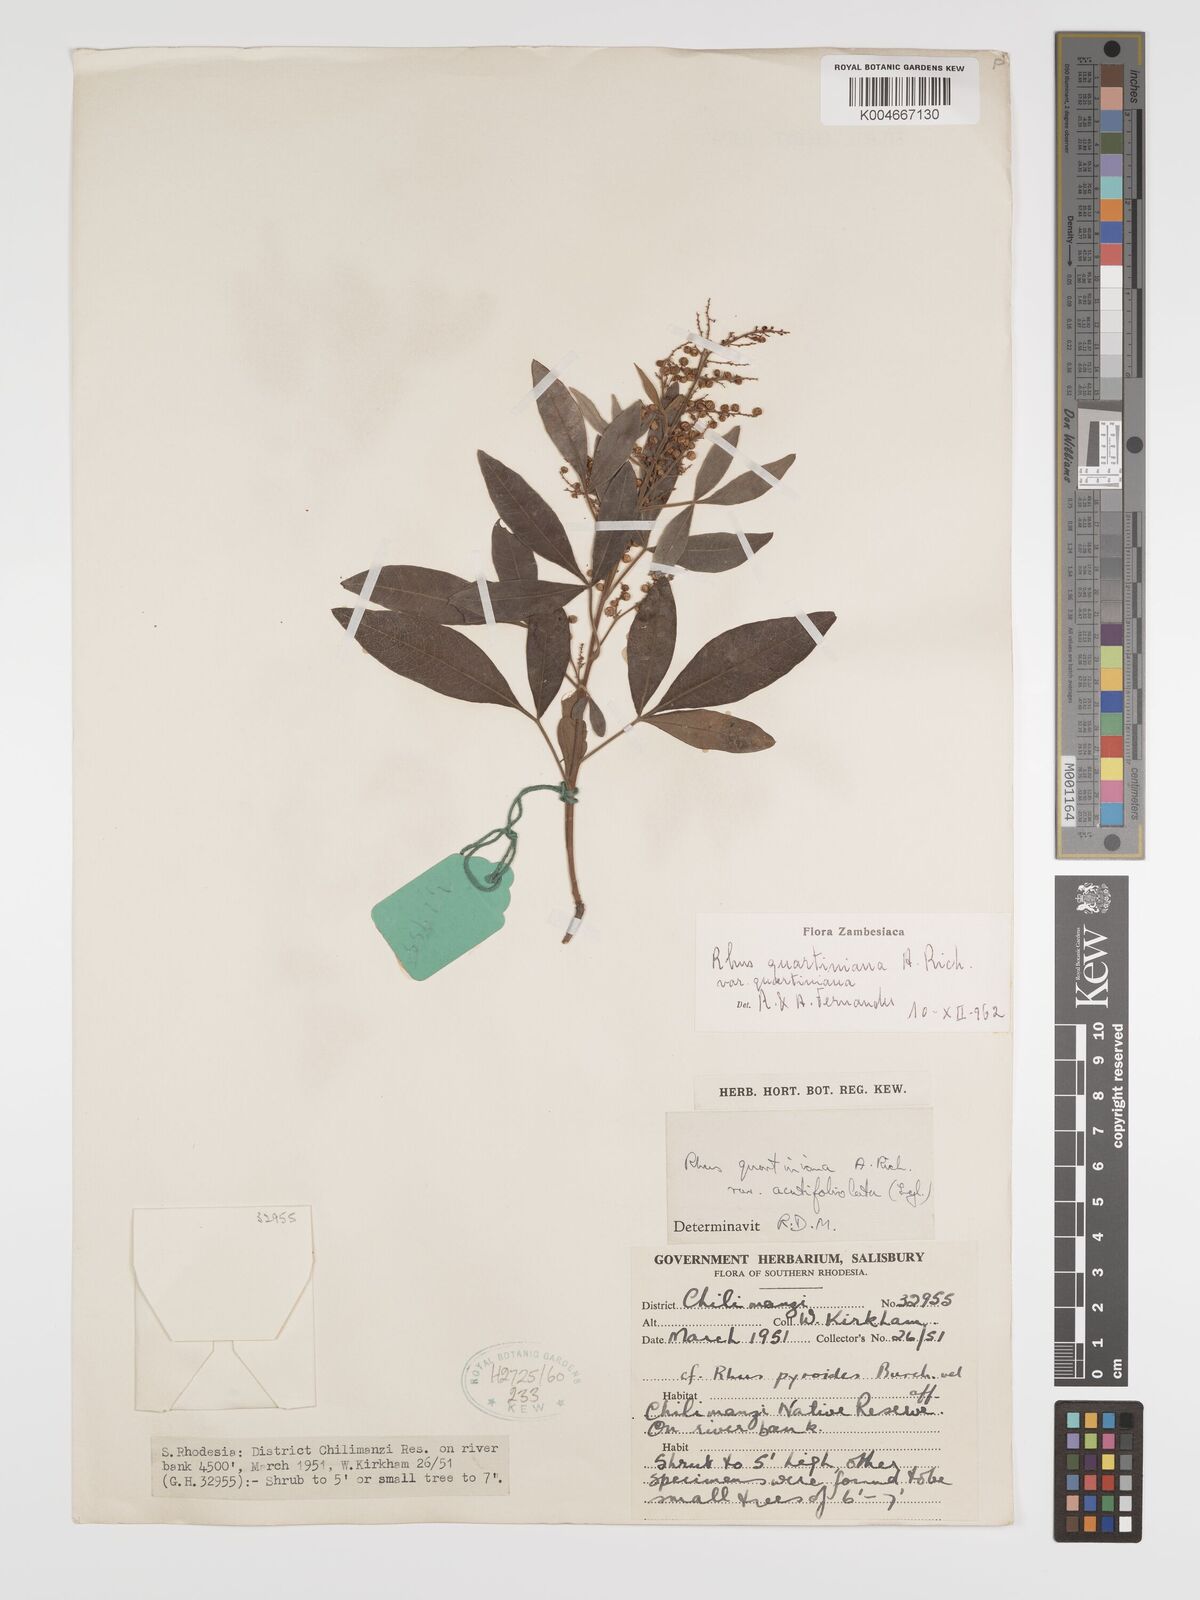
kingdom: Plantae
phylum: Tracheophyta
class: Magnoliopsida
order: Sapindales
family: Anacardiaceae
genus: Searsia
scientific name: Searsia quartiniana
